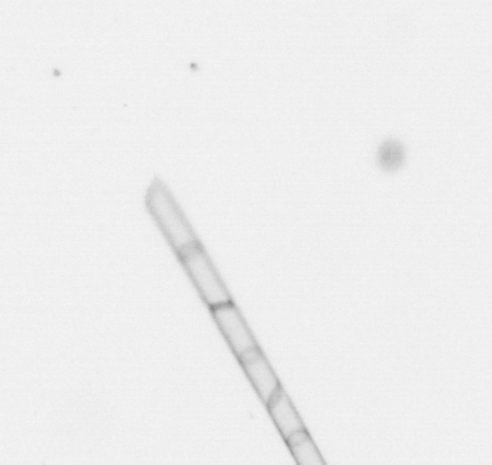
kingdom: Chromista
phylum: Ochrophyta
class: Bacillariophyceae
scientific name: Bacillariophyceae
